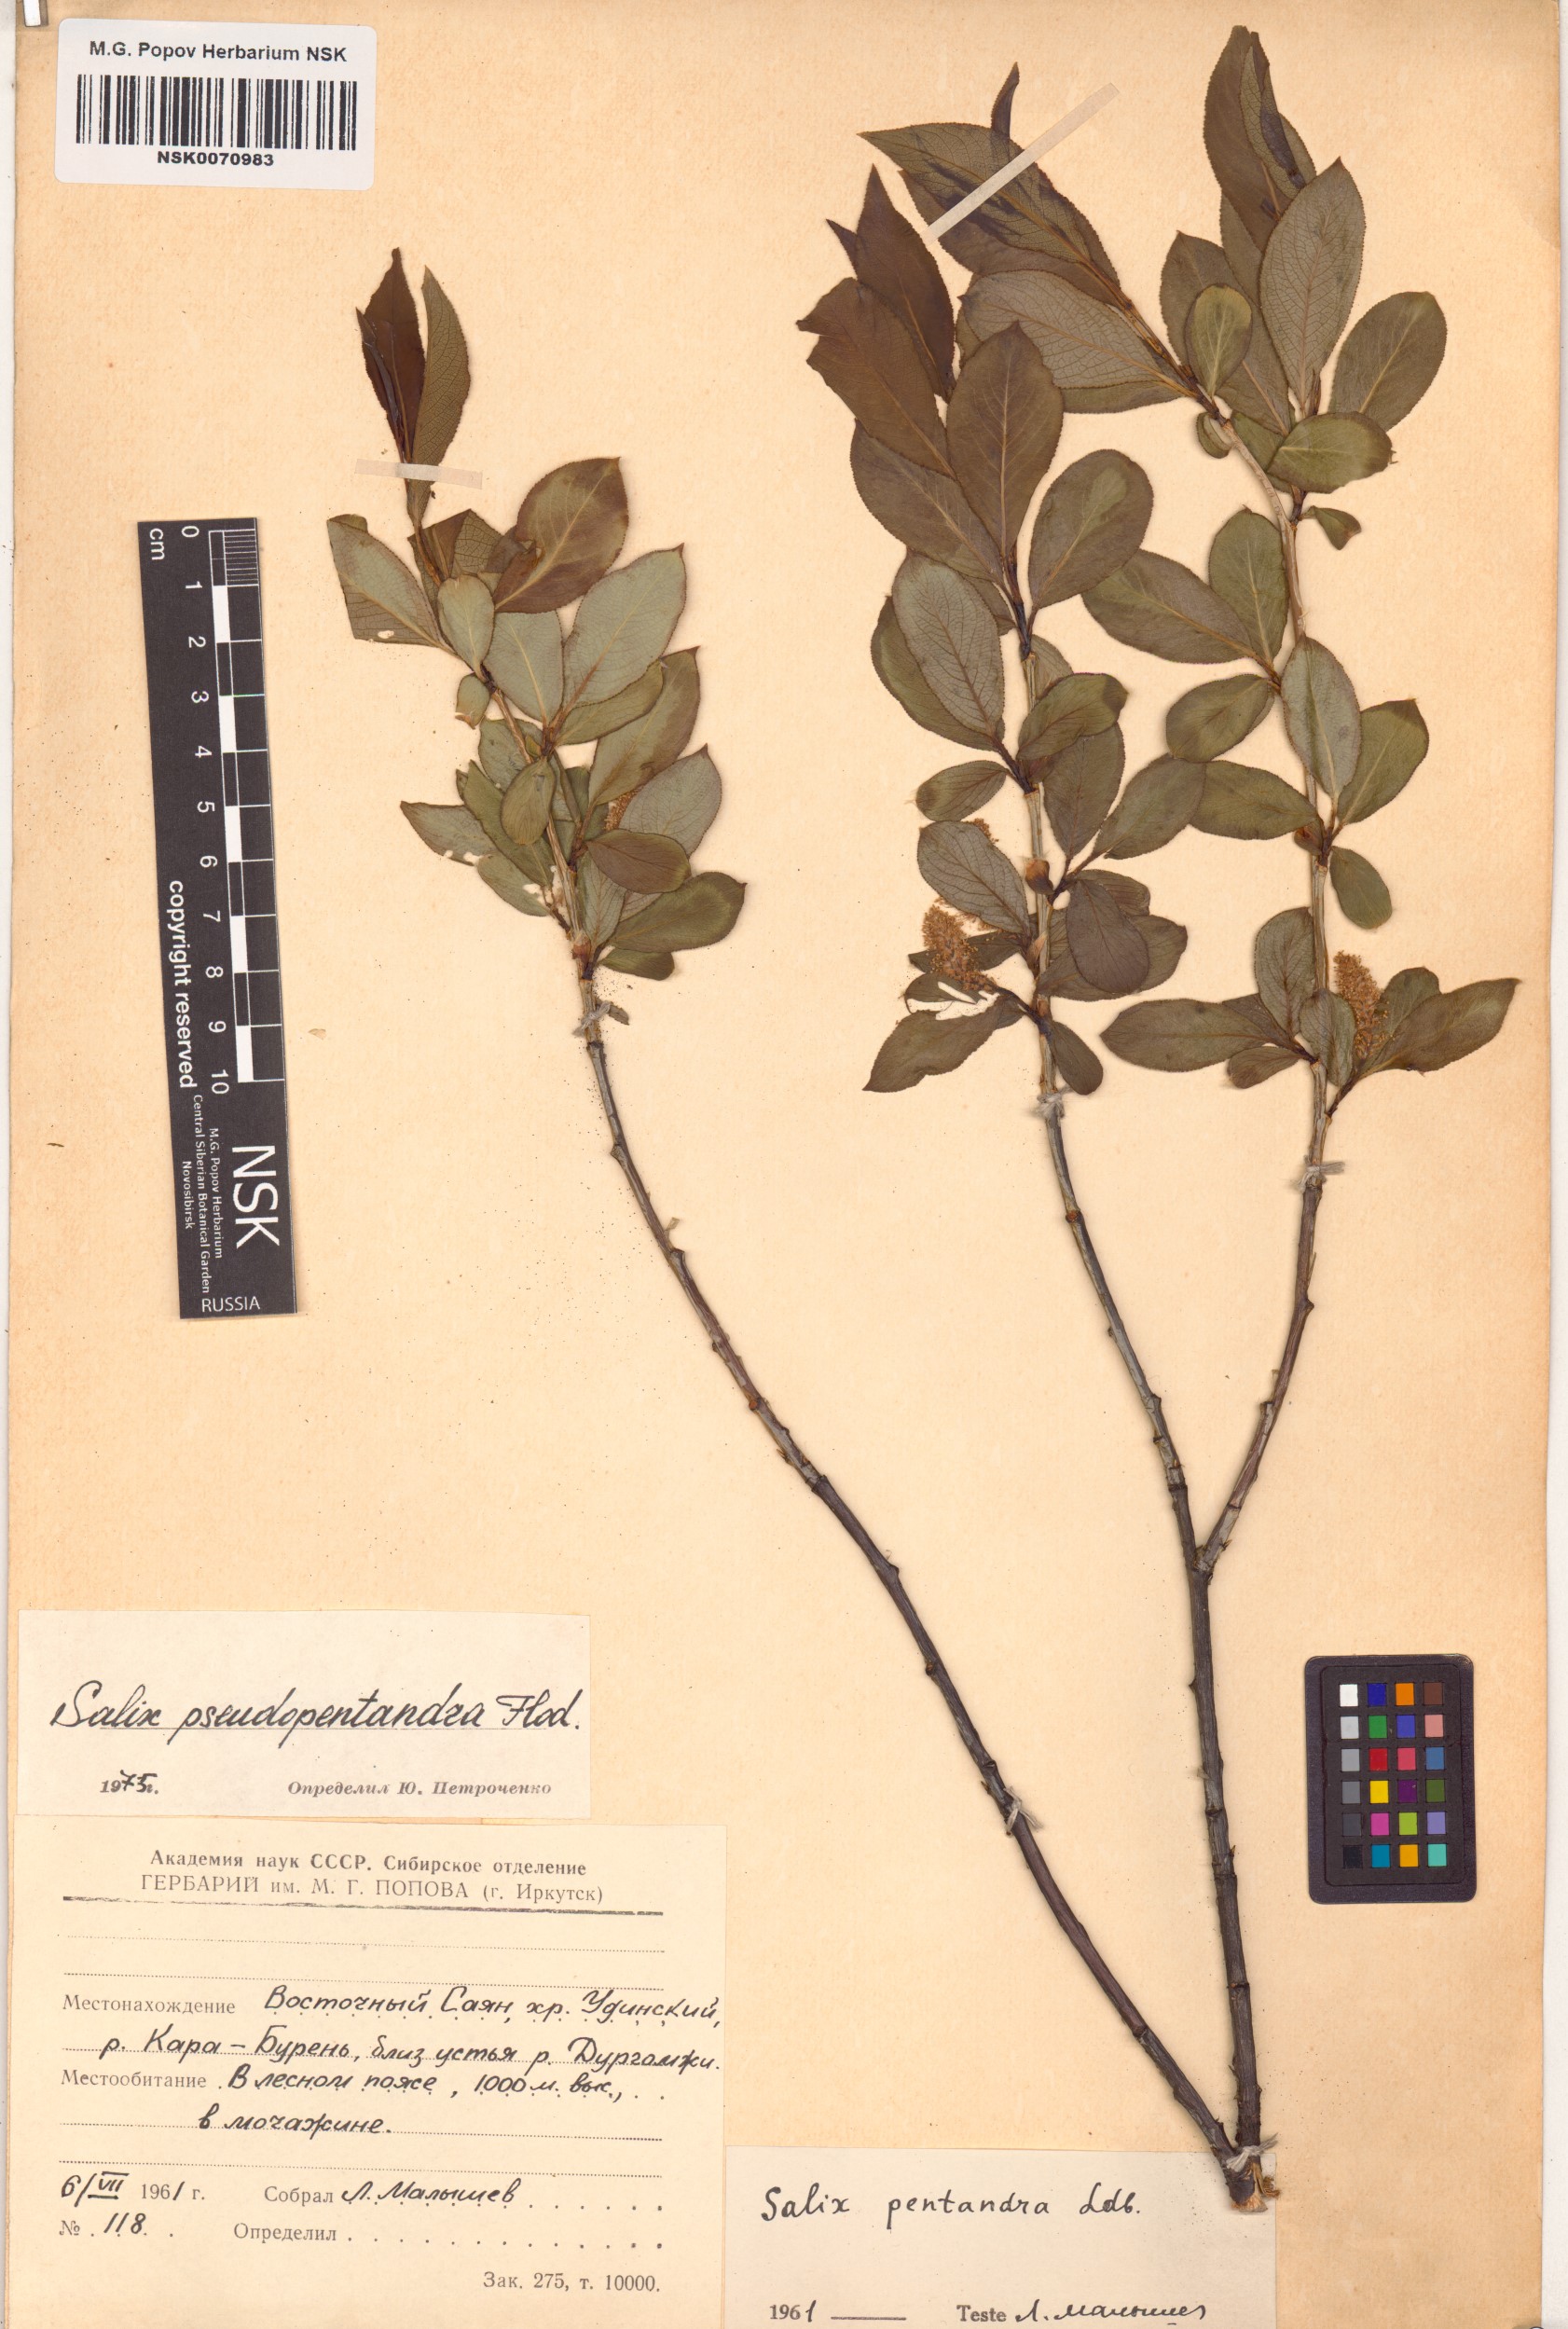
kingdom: Plantae
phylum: Tracheophyta
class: Magnoliopsida
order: Malpighiales
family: Salicaceae
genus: Salix
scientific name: Salix pseudopentandra
